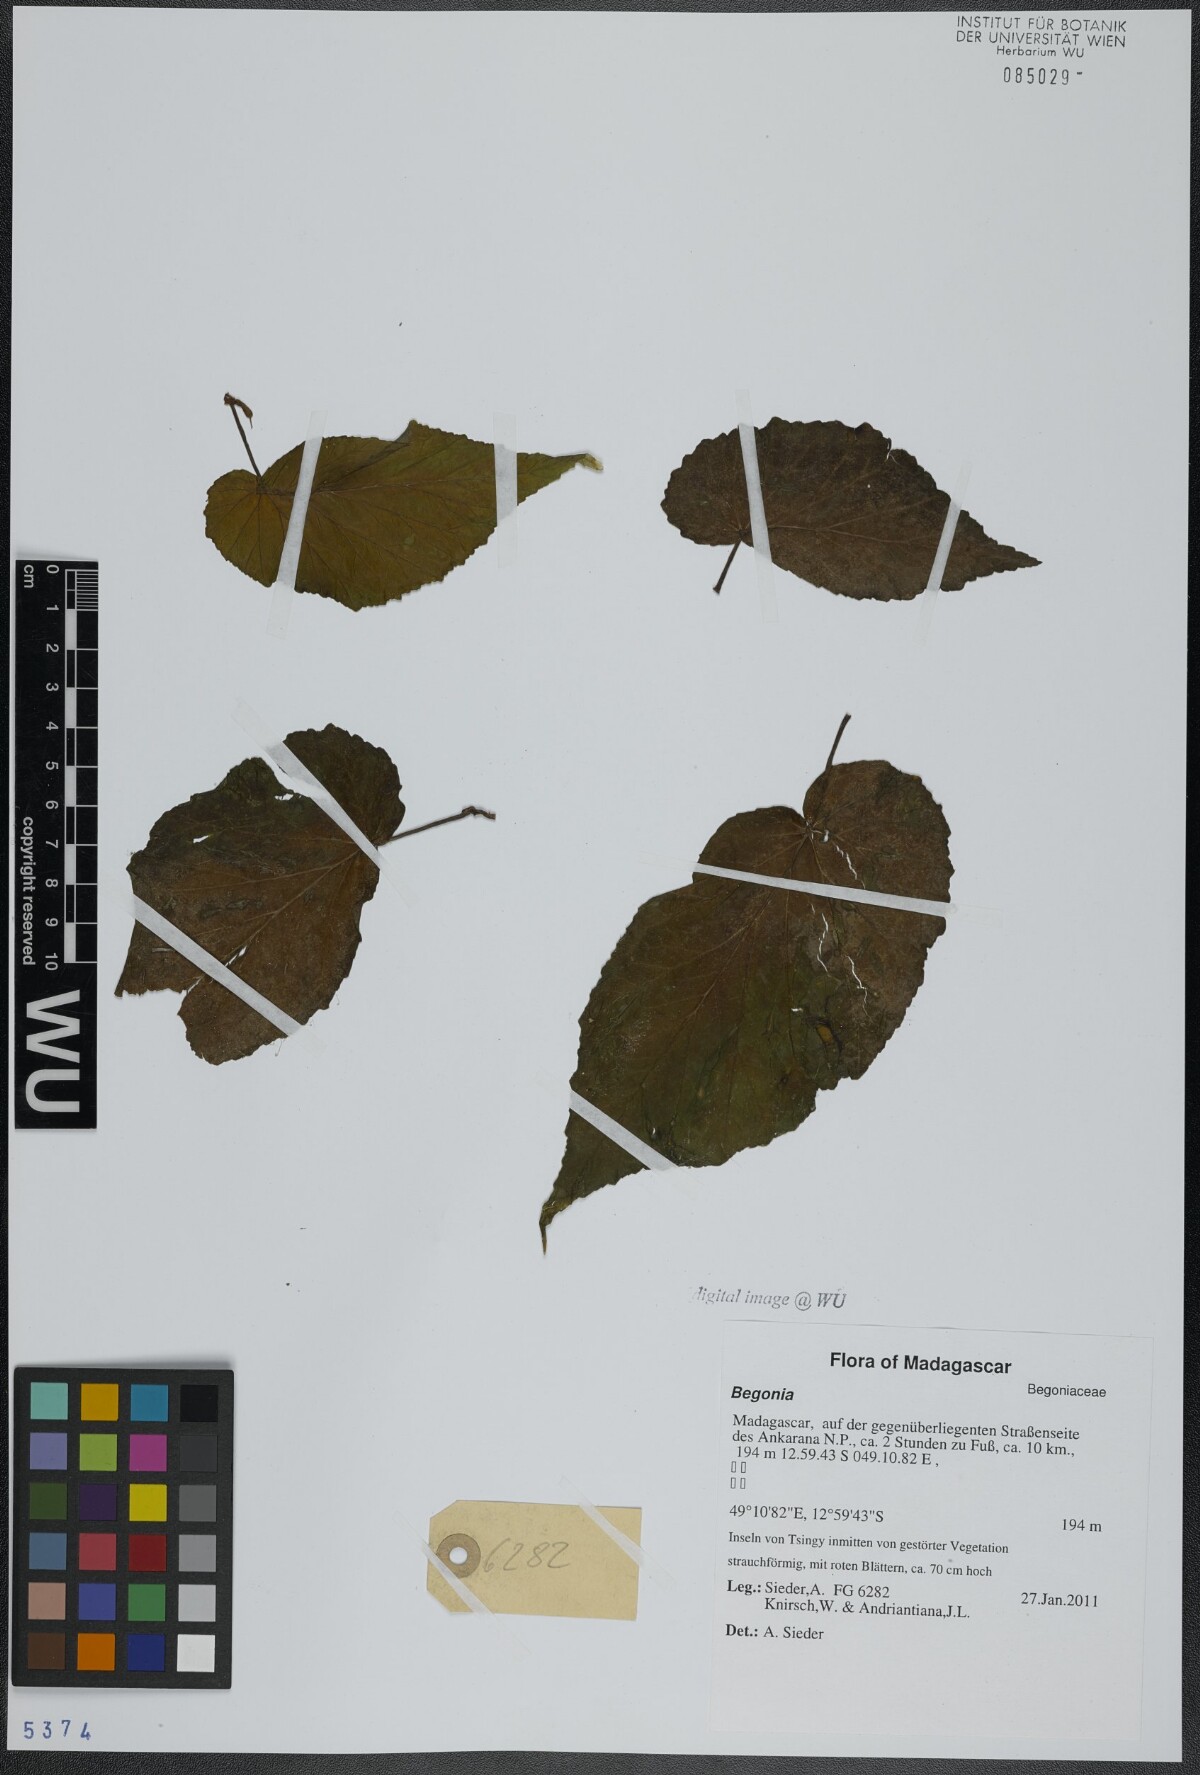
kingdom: Plantae
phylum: Tracheophyta
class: Magnoliopsida
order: Cucurbitales
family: Begoniaceae
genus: Begonia
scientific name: Begonia
